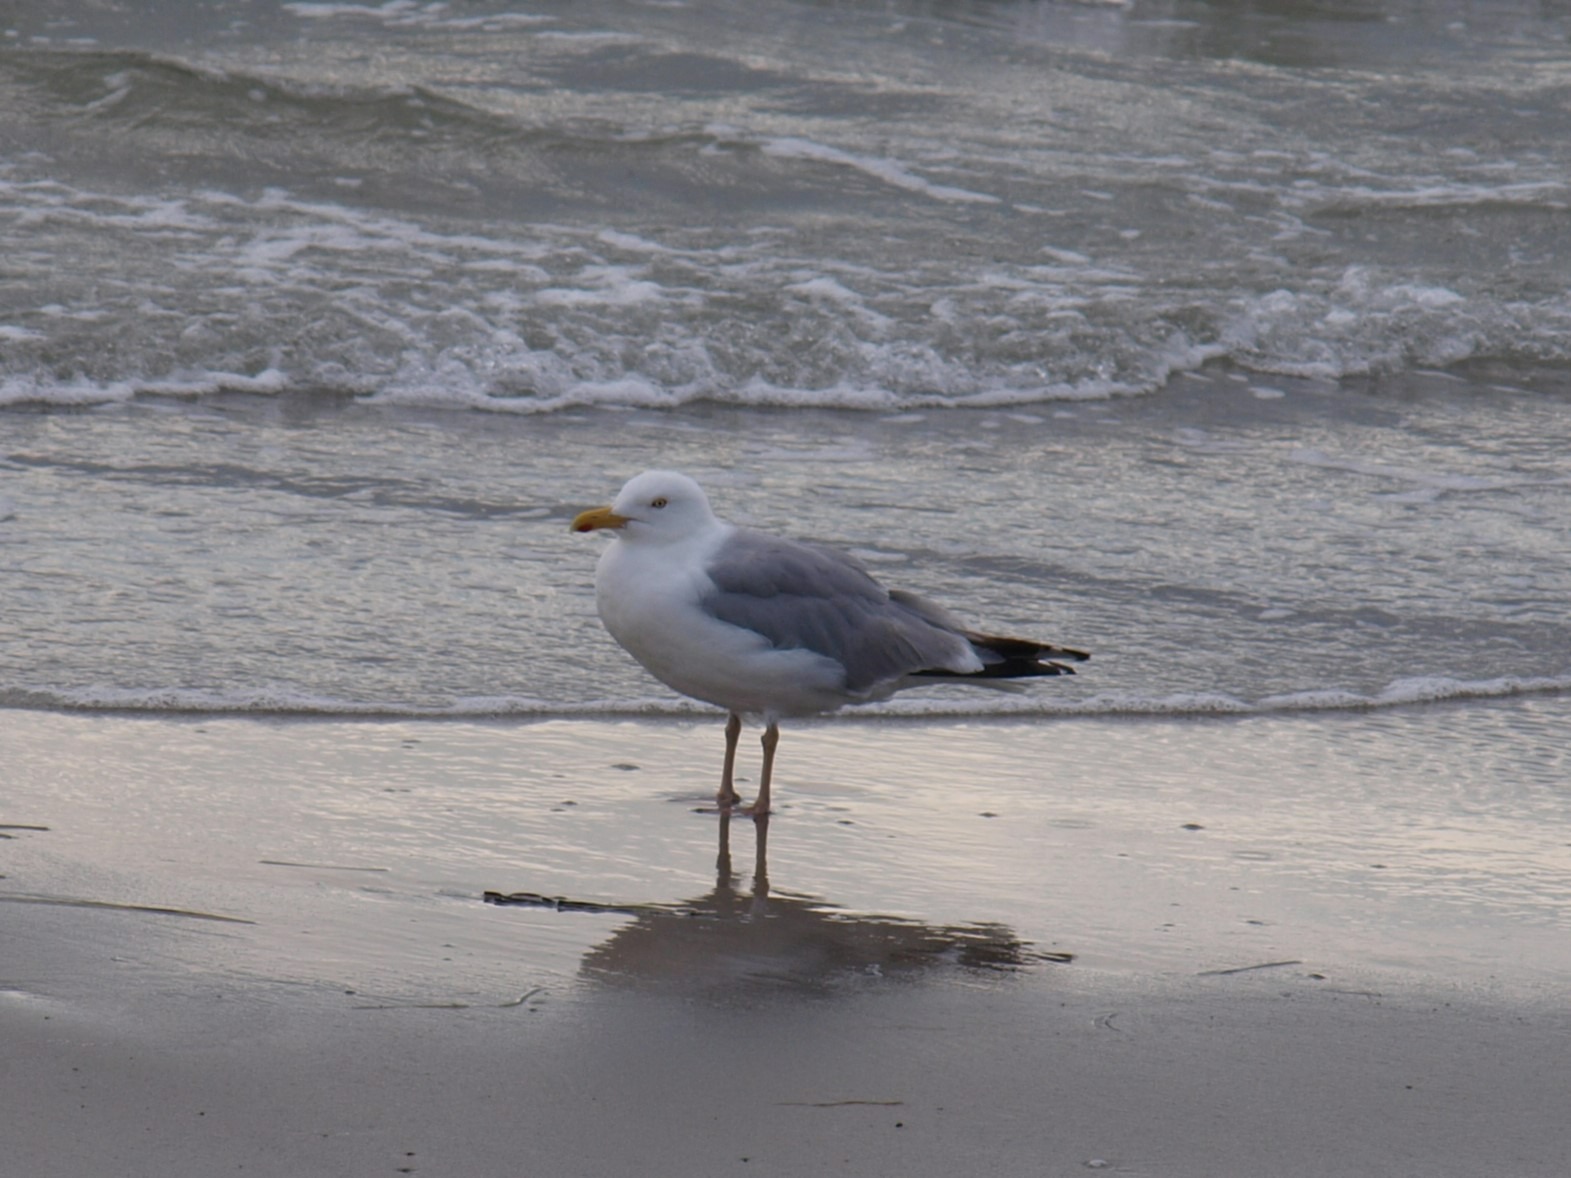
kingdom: Animalia
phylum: Chordata
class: Aves
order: Charadriiformes
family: Laridae
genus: Larus
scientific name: Larus argentatus
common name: Sølvmåge
